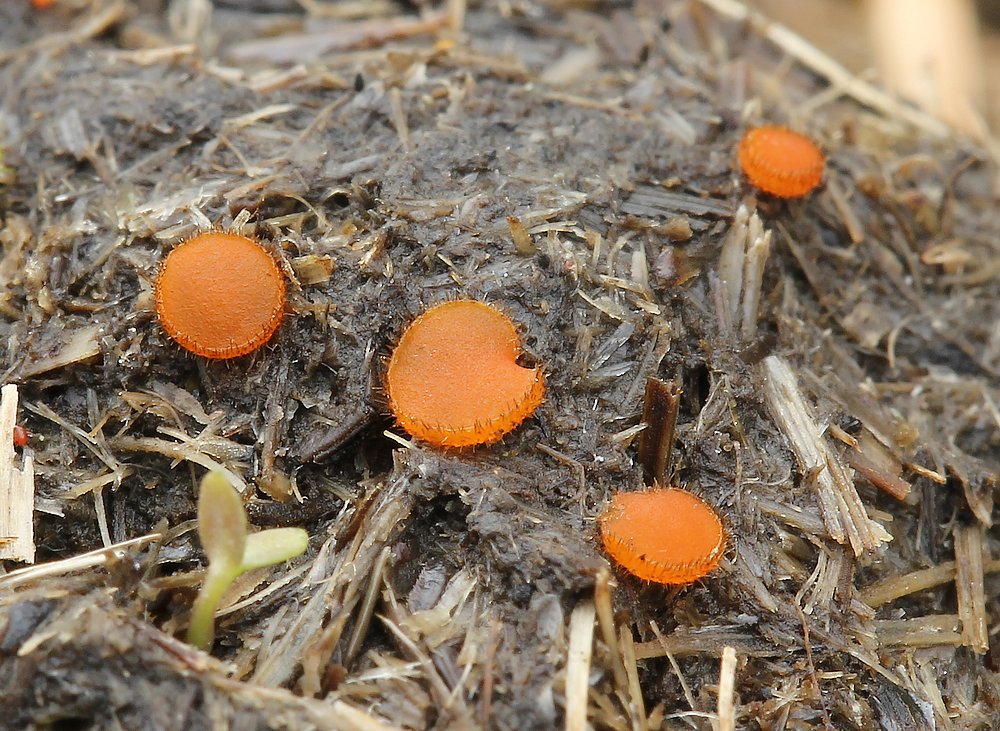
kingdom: Fungi
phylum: Ascomycota
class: Pezizomycetes
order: Pezizales
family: Pyronemataceae
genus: Cheilymenia
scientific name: Cheilymenia
